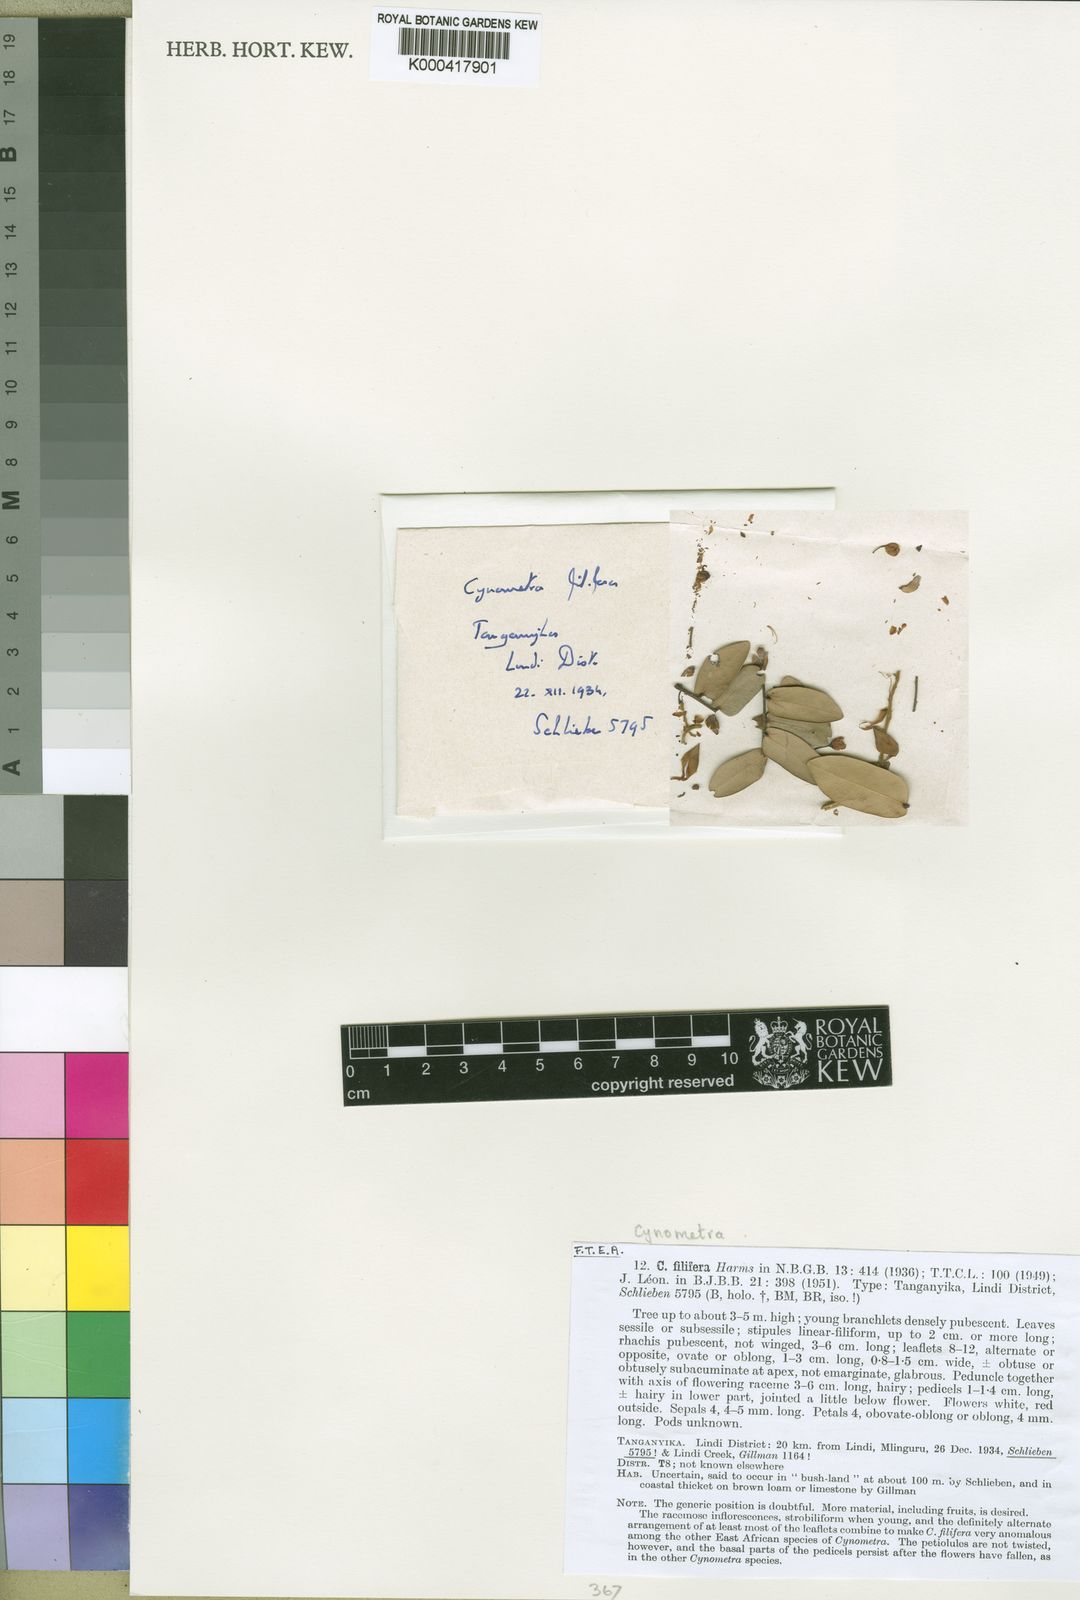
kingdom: Plantae
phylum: Tracheophyta
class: Magnoliopsida
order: Fabales
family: Fabaceae
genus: Cynometra
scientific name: Cynometra filifera
